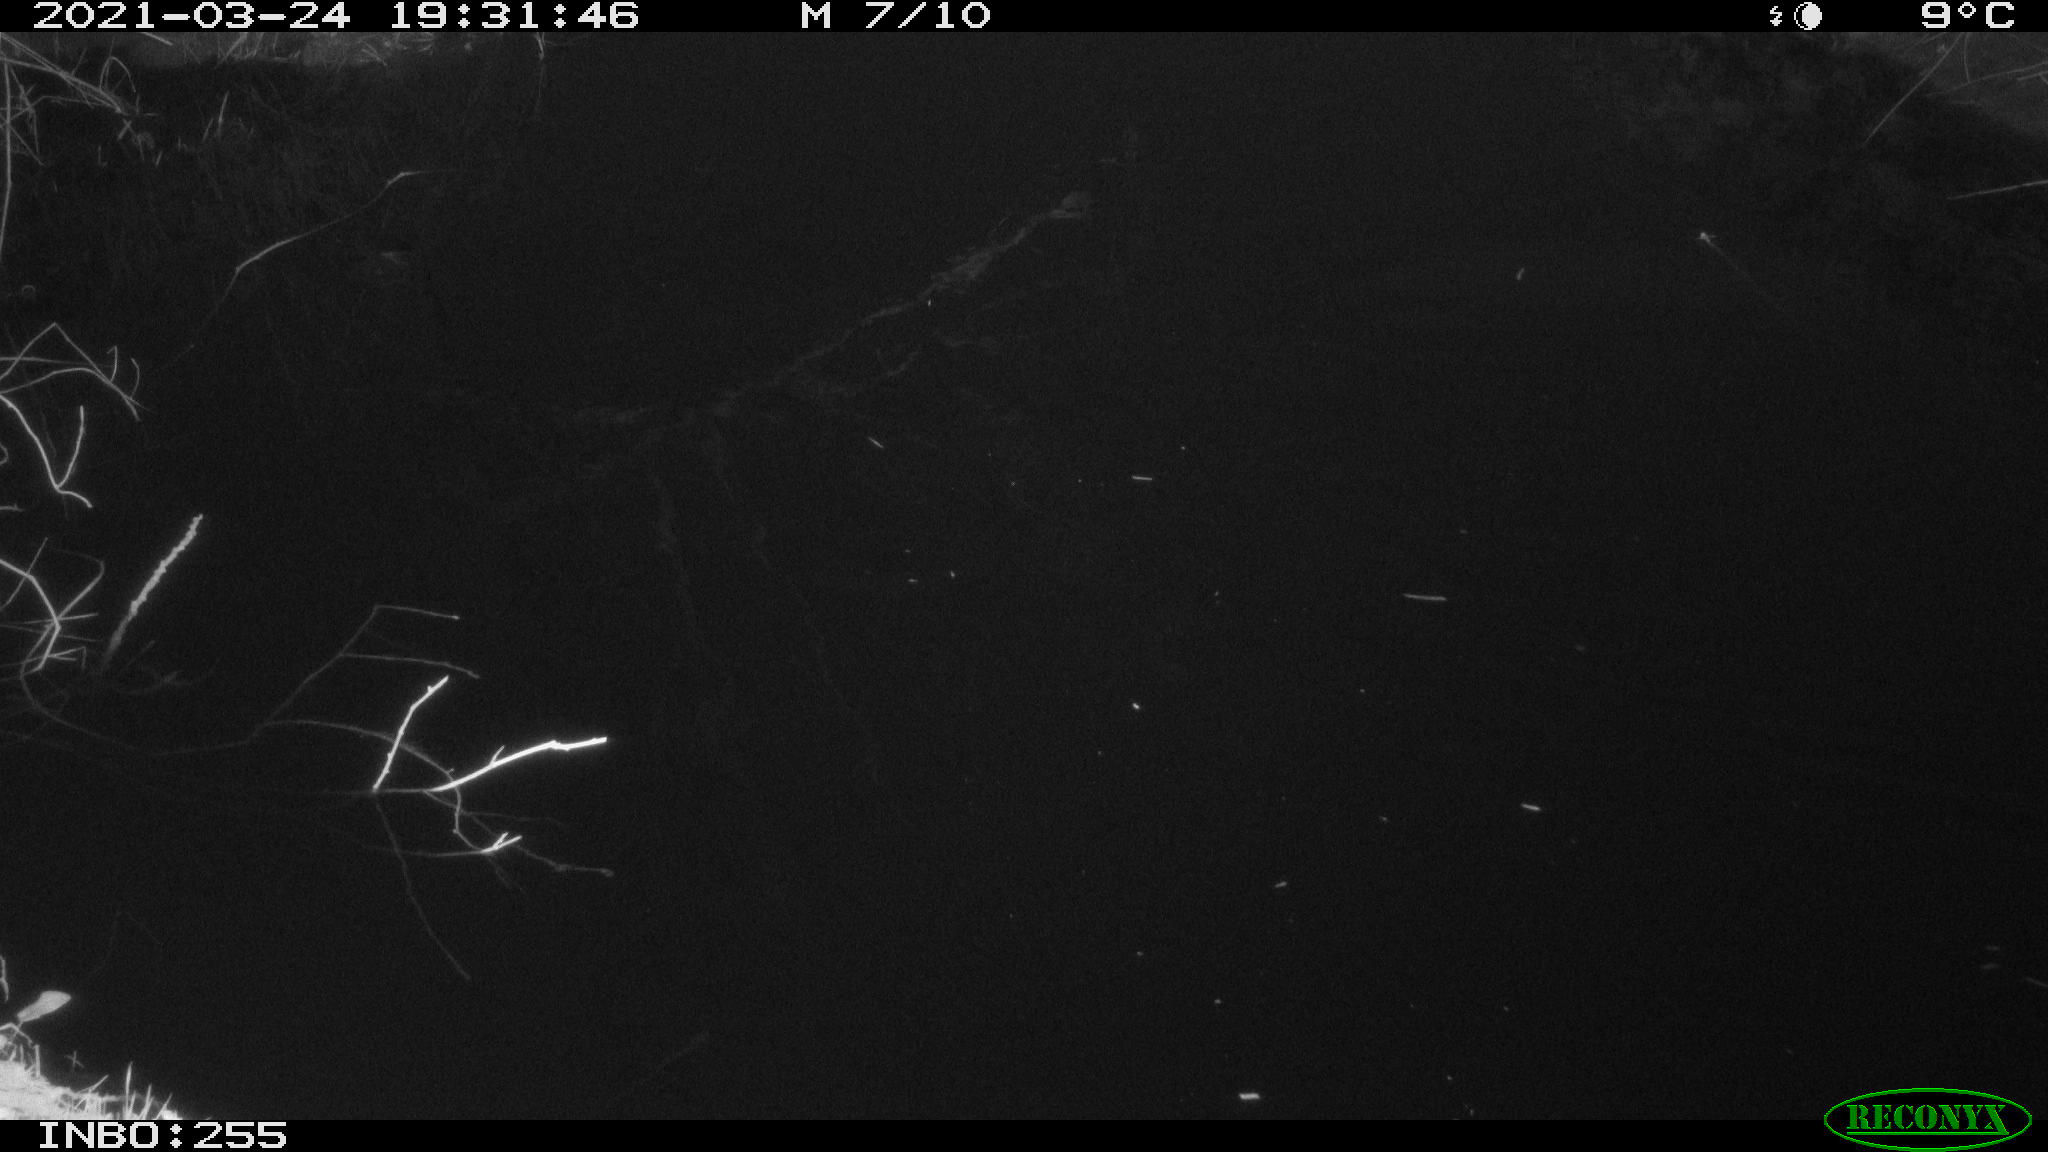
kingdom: Animalia
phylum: Chordata
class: Aves
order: Gruiformes
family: Rallidae
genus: Gallinula
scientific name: Gallinula chloropus
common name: Common moorhen
